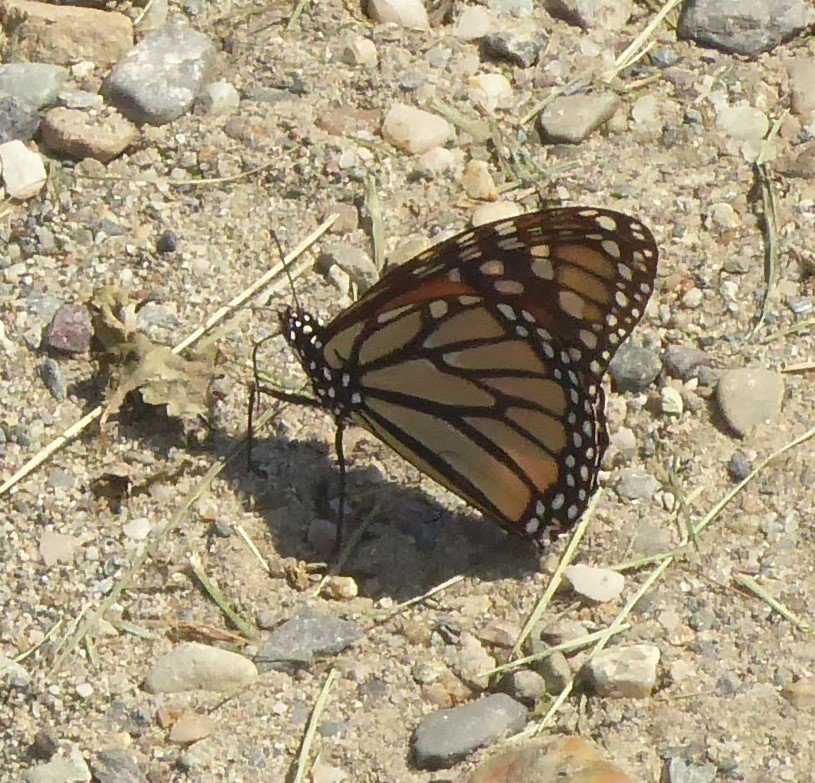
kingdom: Animalia
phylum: Arthropoda
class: Insecta
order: Lepidoptera
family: Nymphalidae
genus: Danaus
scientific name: Danaus plexippus
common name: Monarch
